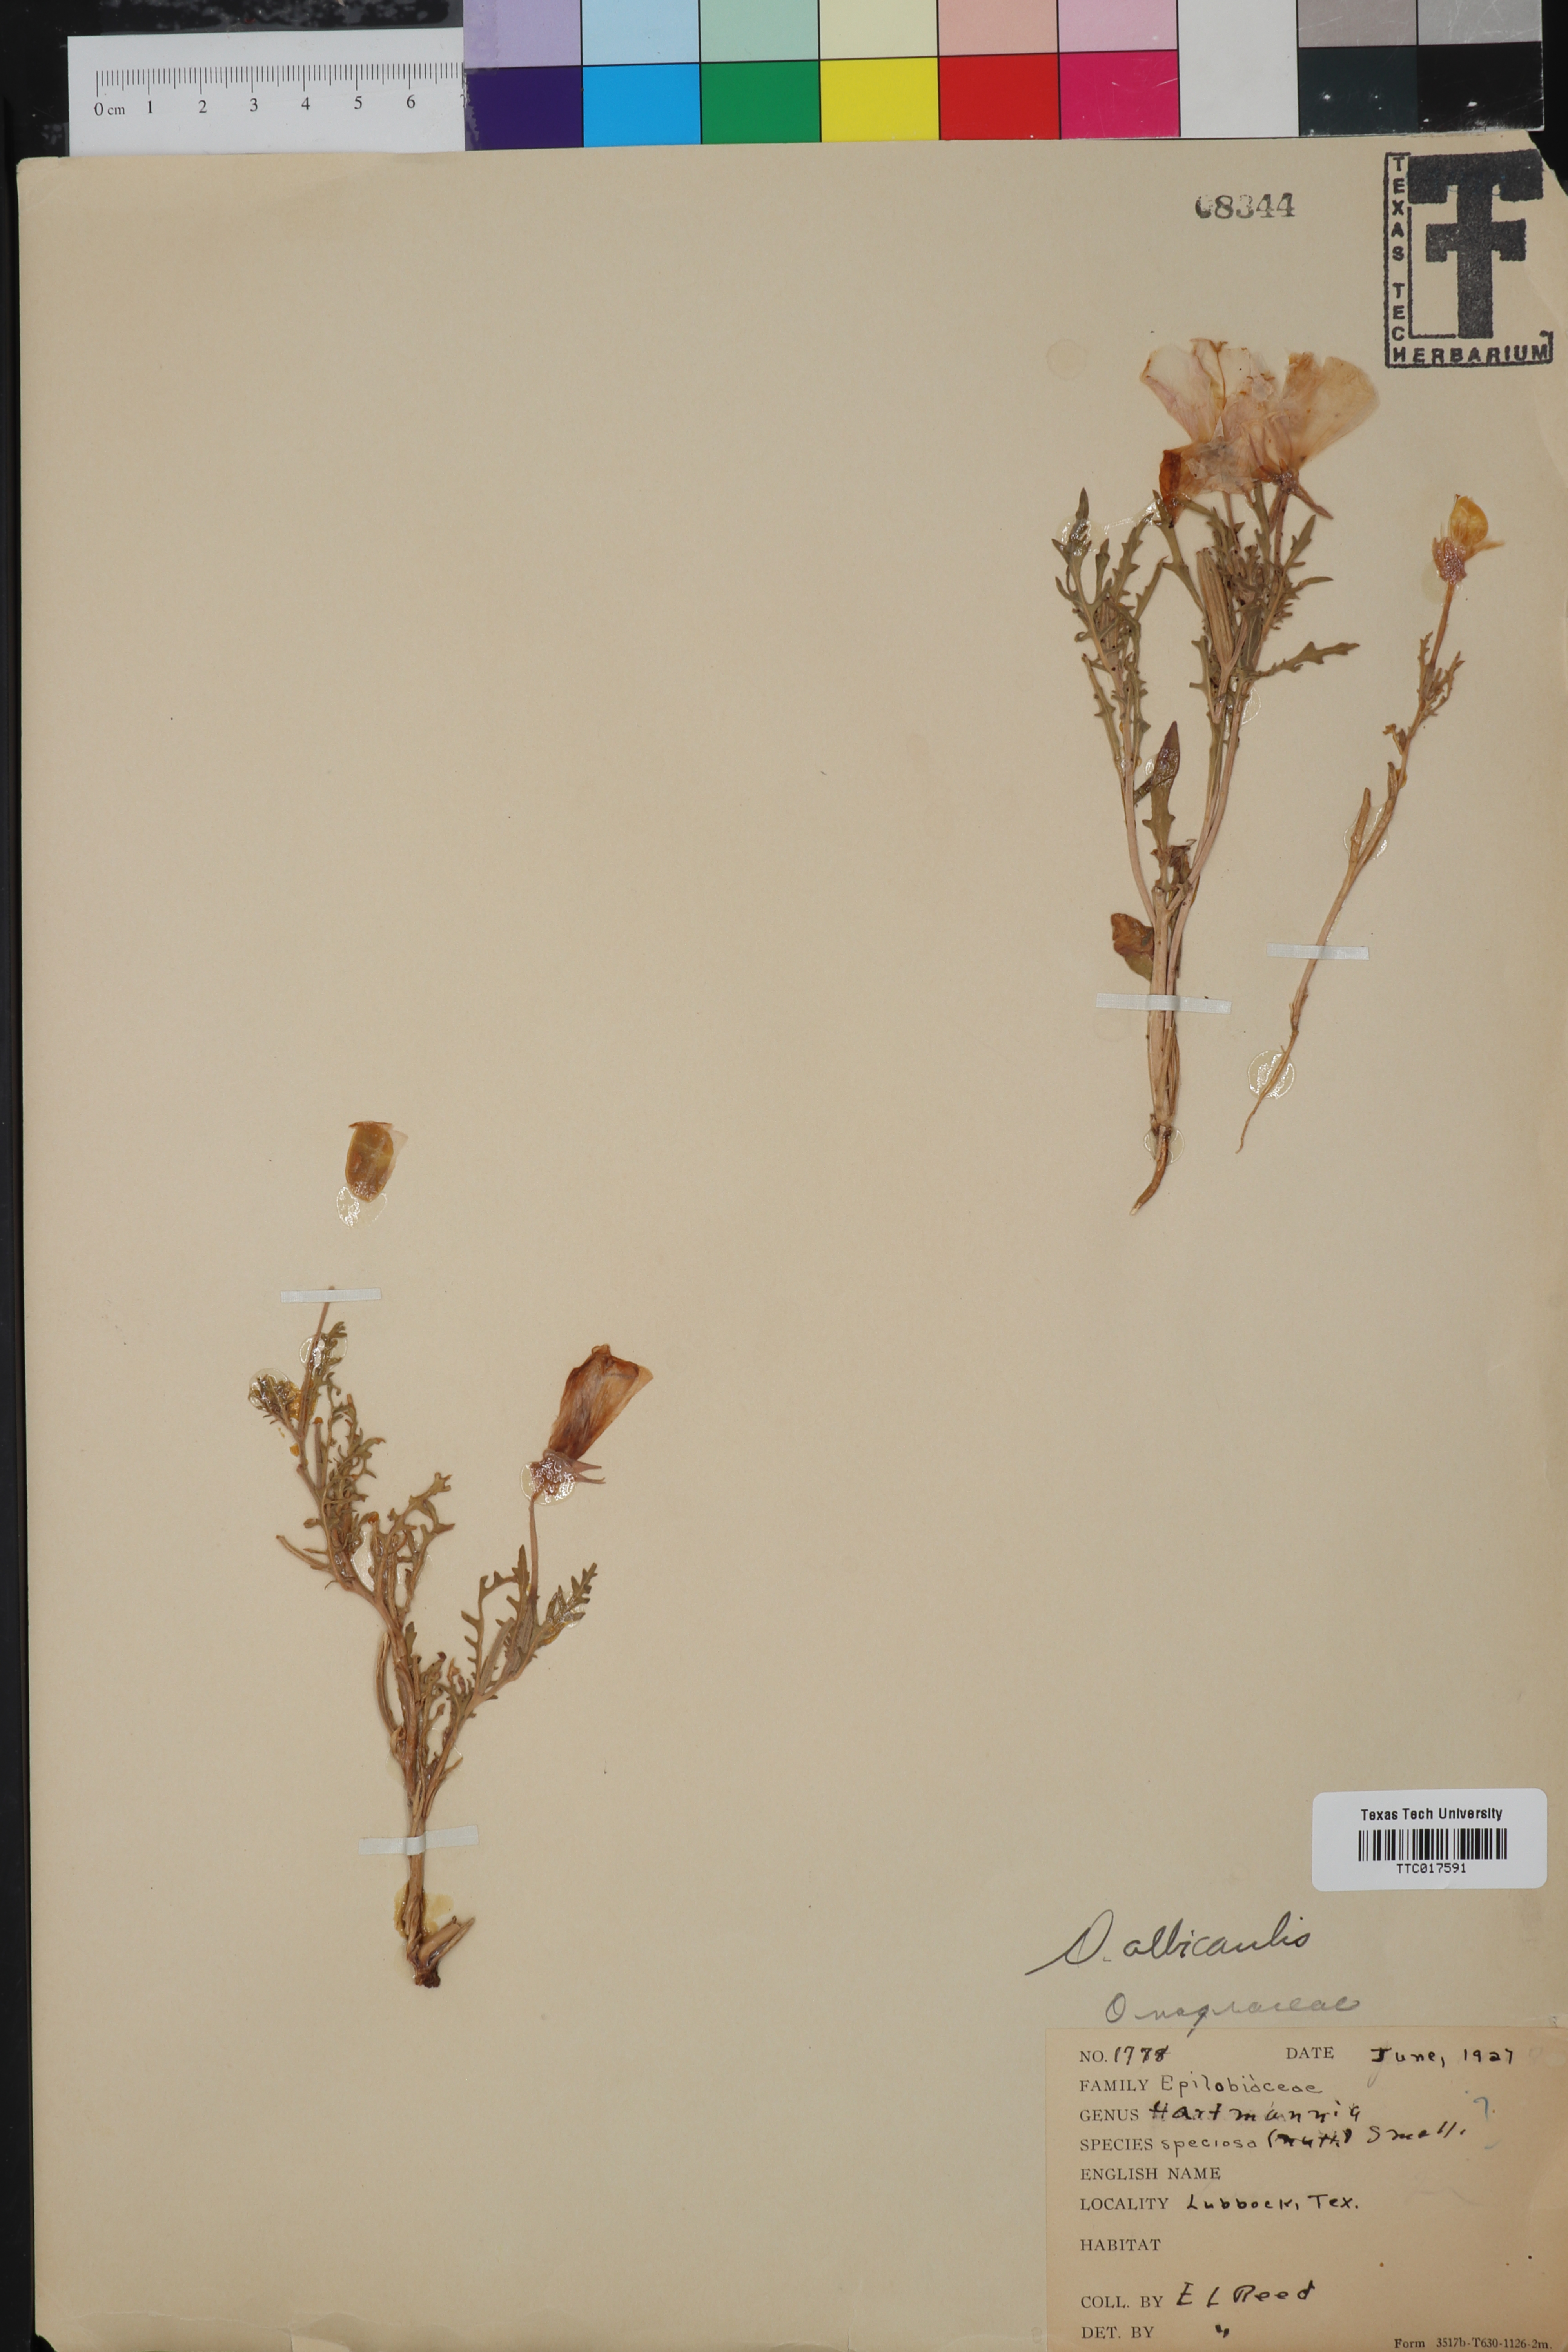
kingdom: Plantae
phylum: Tracheophyta
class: Magnoliopsida
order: Myrtales
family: Onagraceae
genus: Oenothera
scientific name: Oenothera albicaulis
